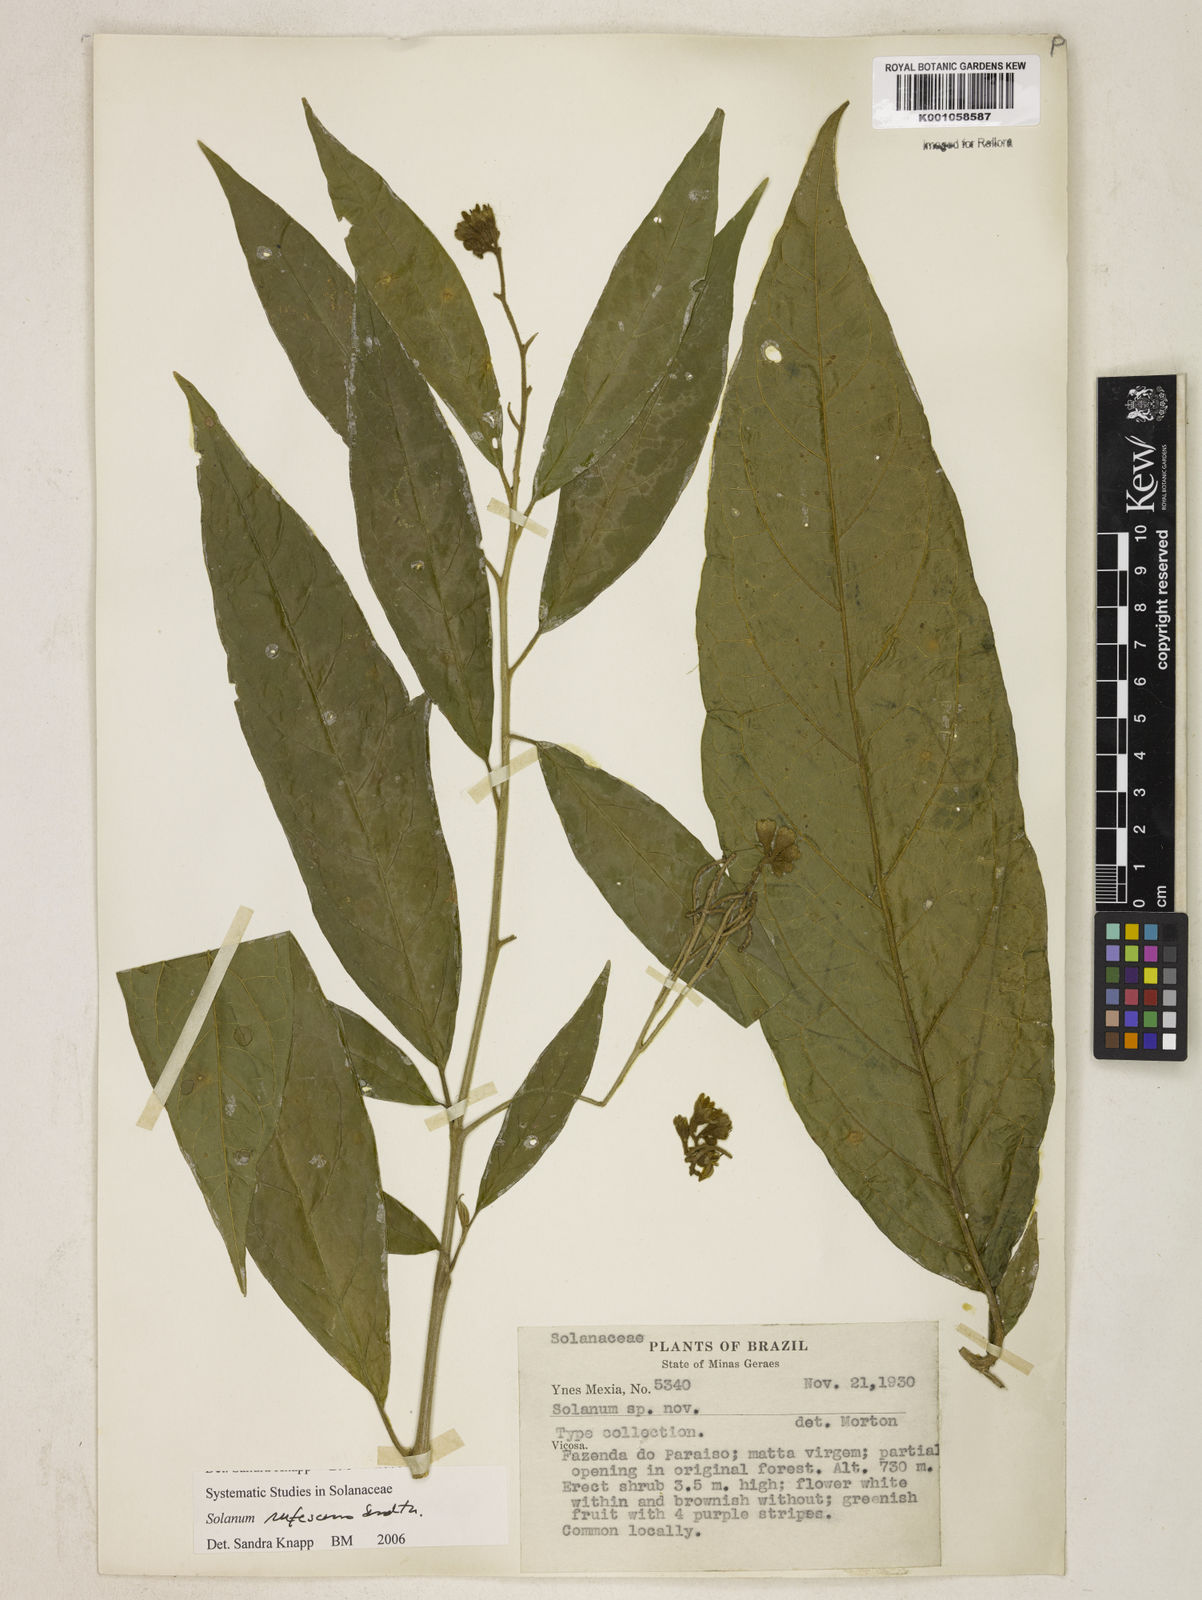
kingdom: Plantae
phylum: Tracheophyta
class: Magnoliopsida
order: Solanales
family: Solanaceae
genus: Solanum
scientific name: Solanum rufescens
